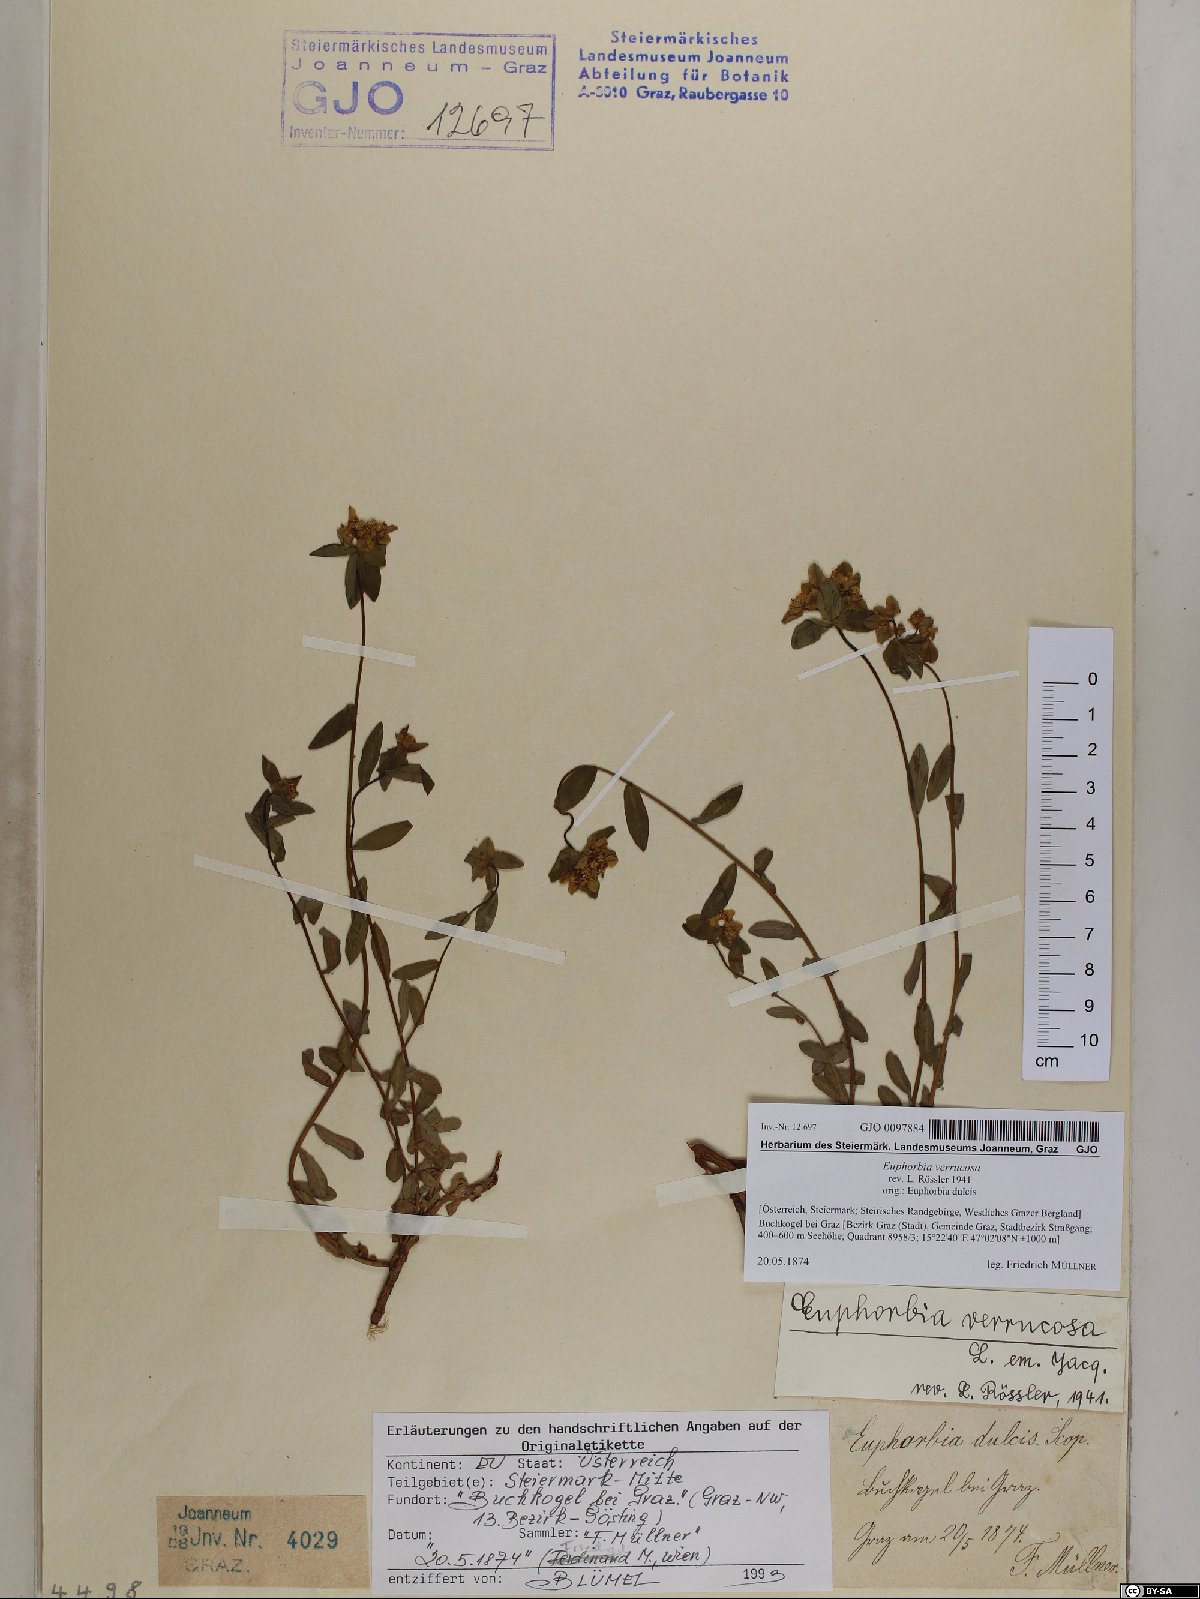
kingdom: Plantae
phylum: Tracheophyta
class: Magnoliopsida
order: Malpighiales
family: Euphorbiaceae
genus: Euphorbia
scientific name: Euphorbia verrucosa
